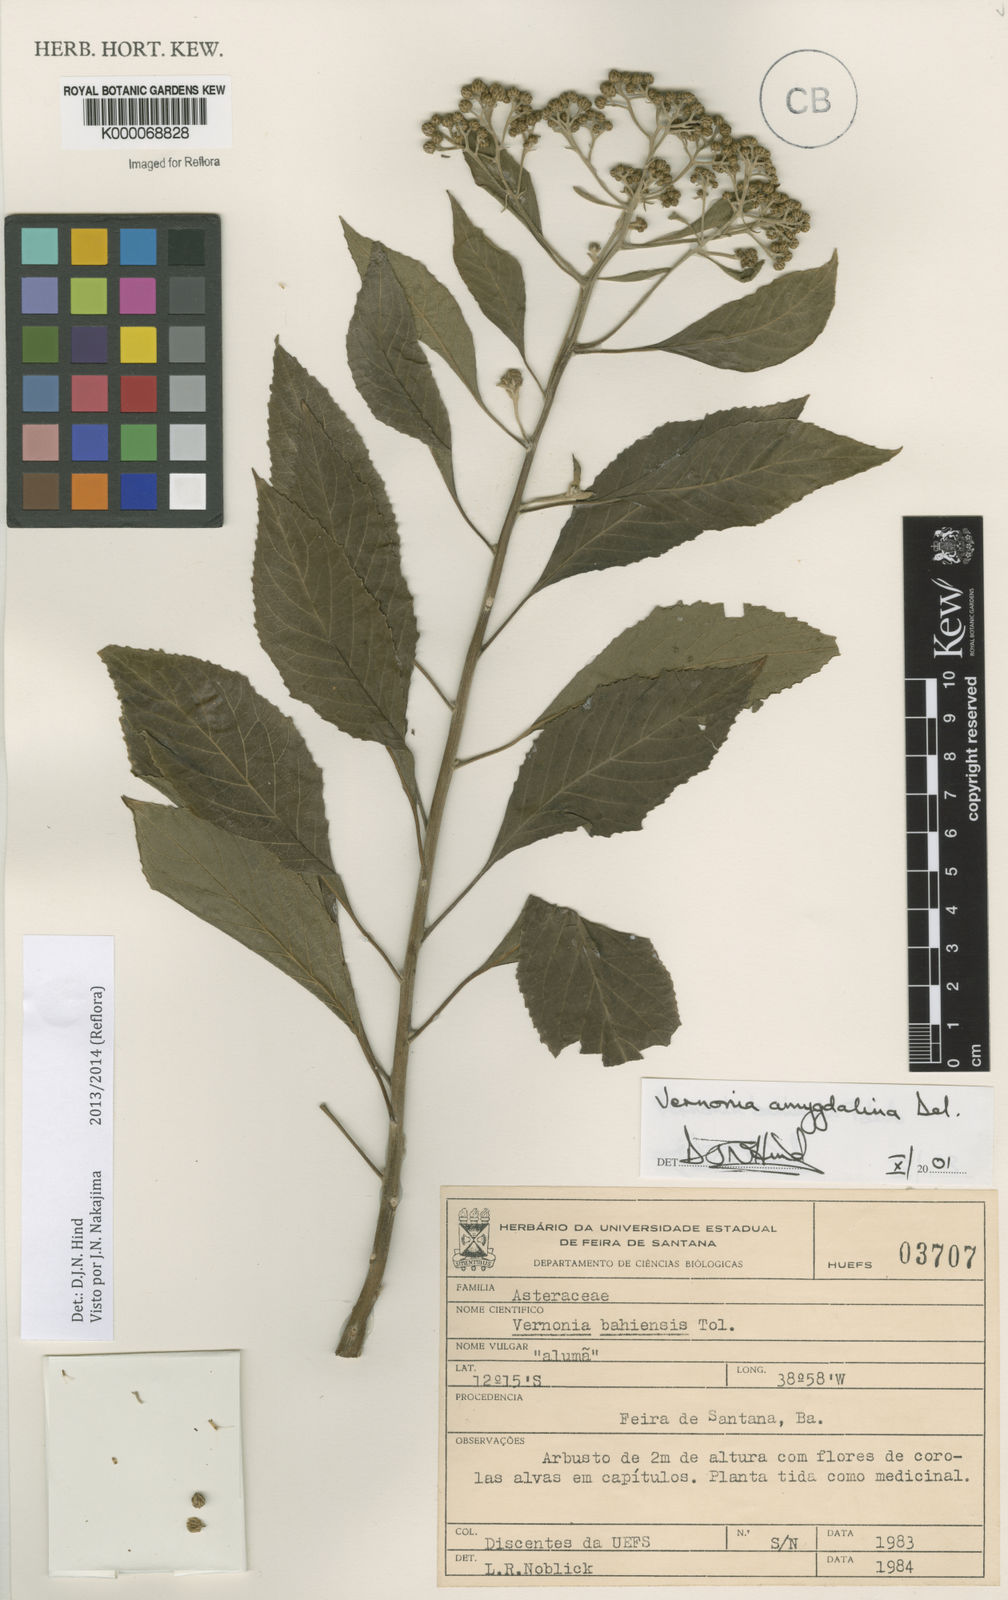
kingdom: Plantae
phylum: Tracheophyta
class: Magnoliopsida
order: Asterales
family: Asteraceae
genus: Gymnanthemum
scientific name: Gymnanthemum amygdalinum
